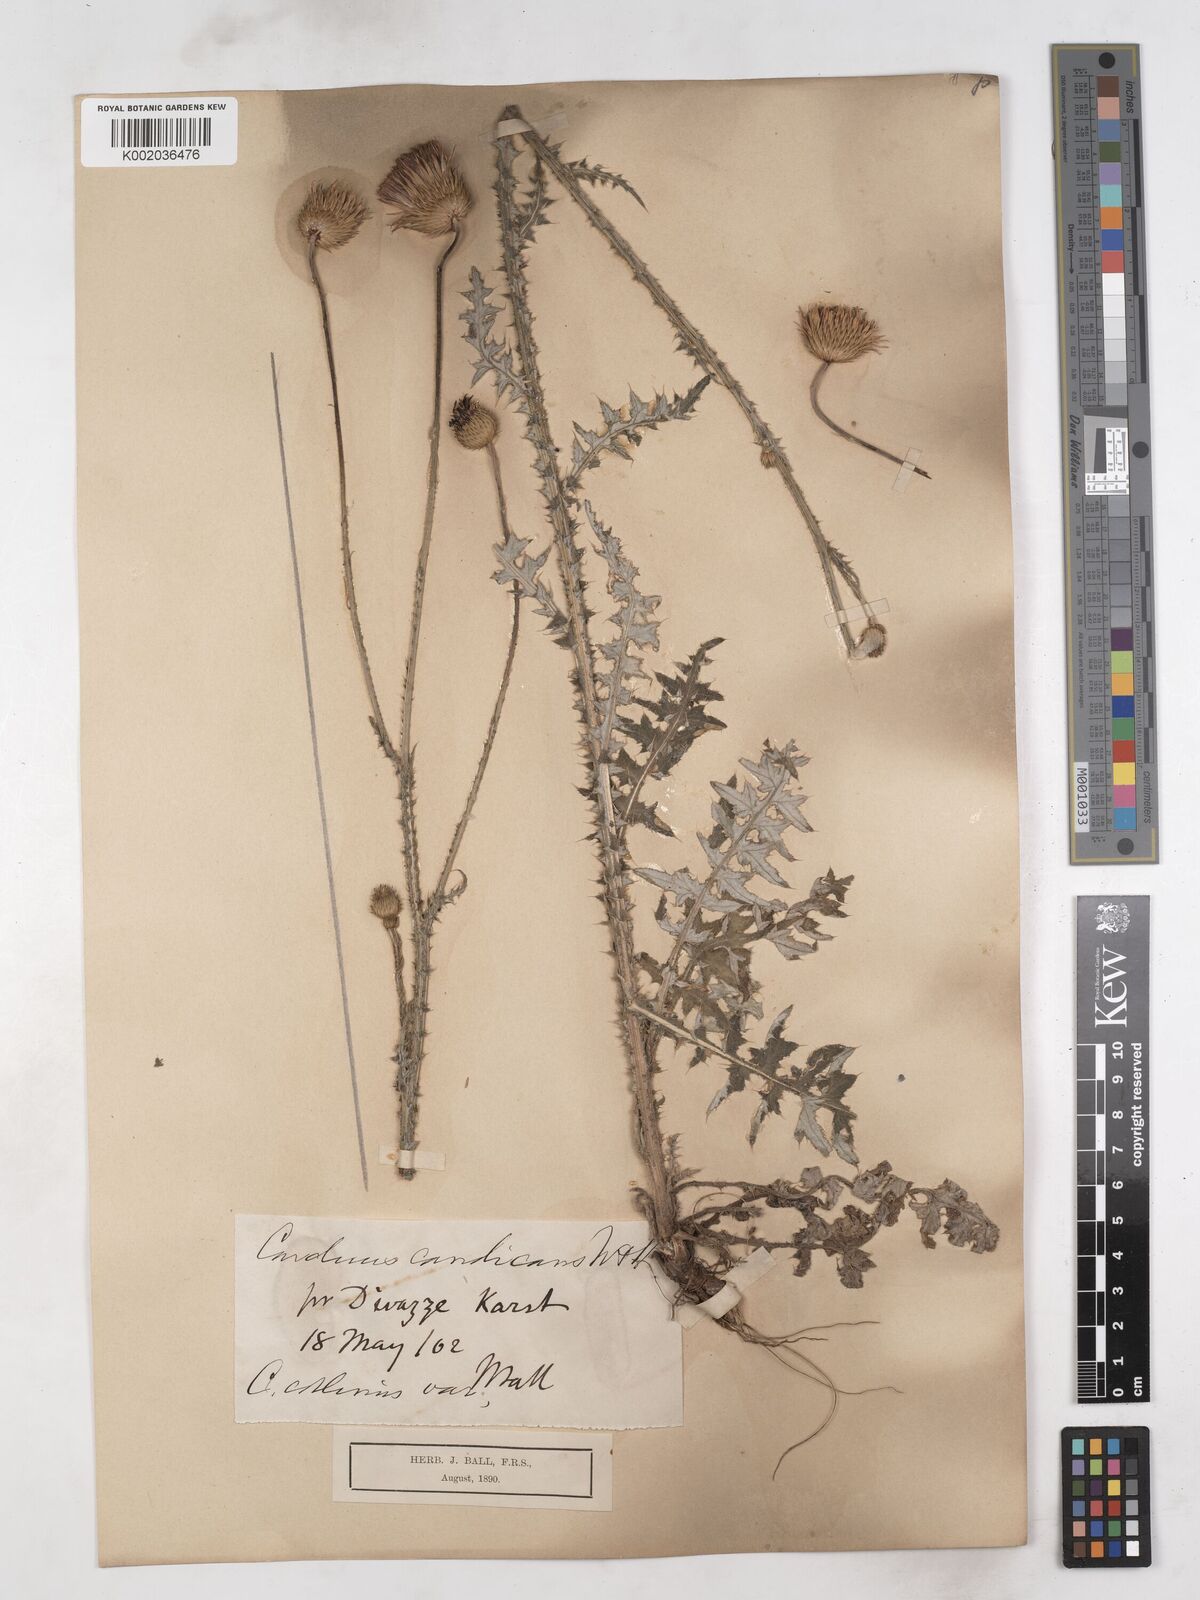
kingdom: Plantae
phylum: Tracheophyta
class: Magnoliopsida
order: Asterales
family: Asteraceae
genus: Carduus
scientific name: Carduus candicans
